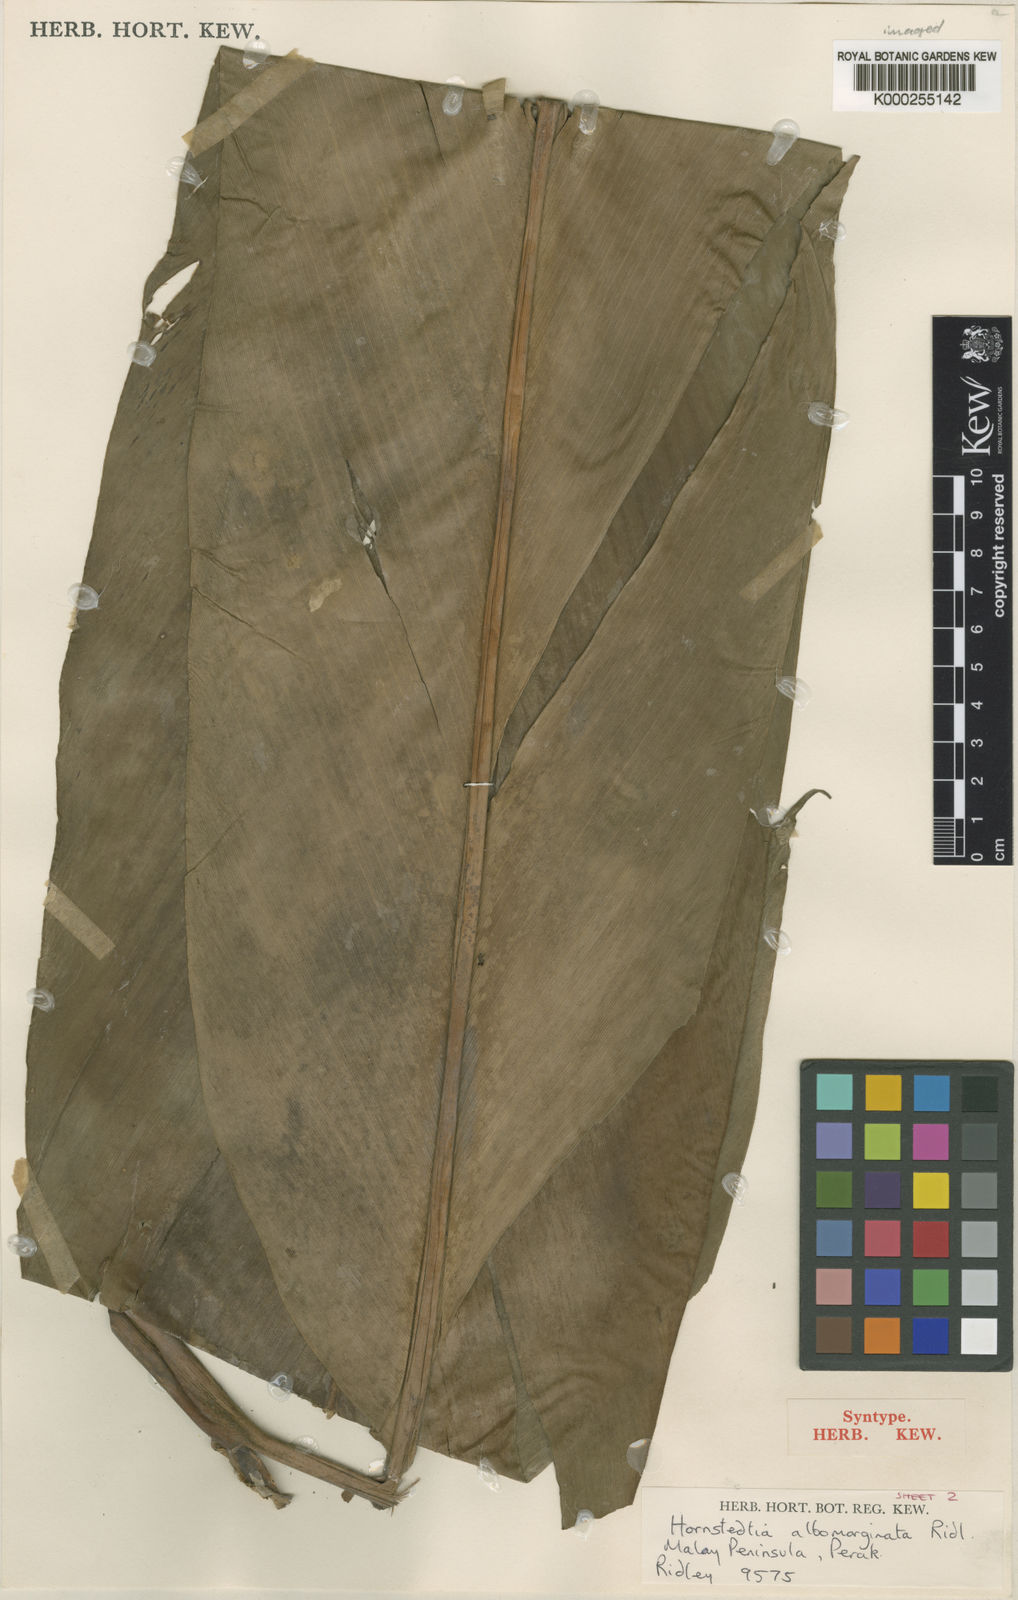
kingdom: Plantae
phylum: Tracheophyta
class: Liliopsida
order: Zingiberales
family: Zingiberaceae
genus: Etlingera
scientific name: Etlingera metriocheilos
